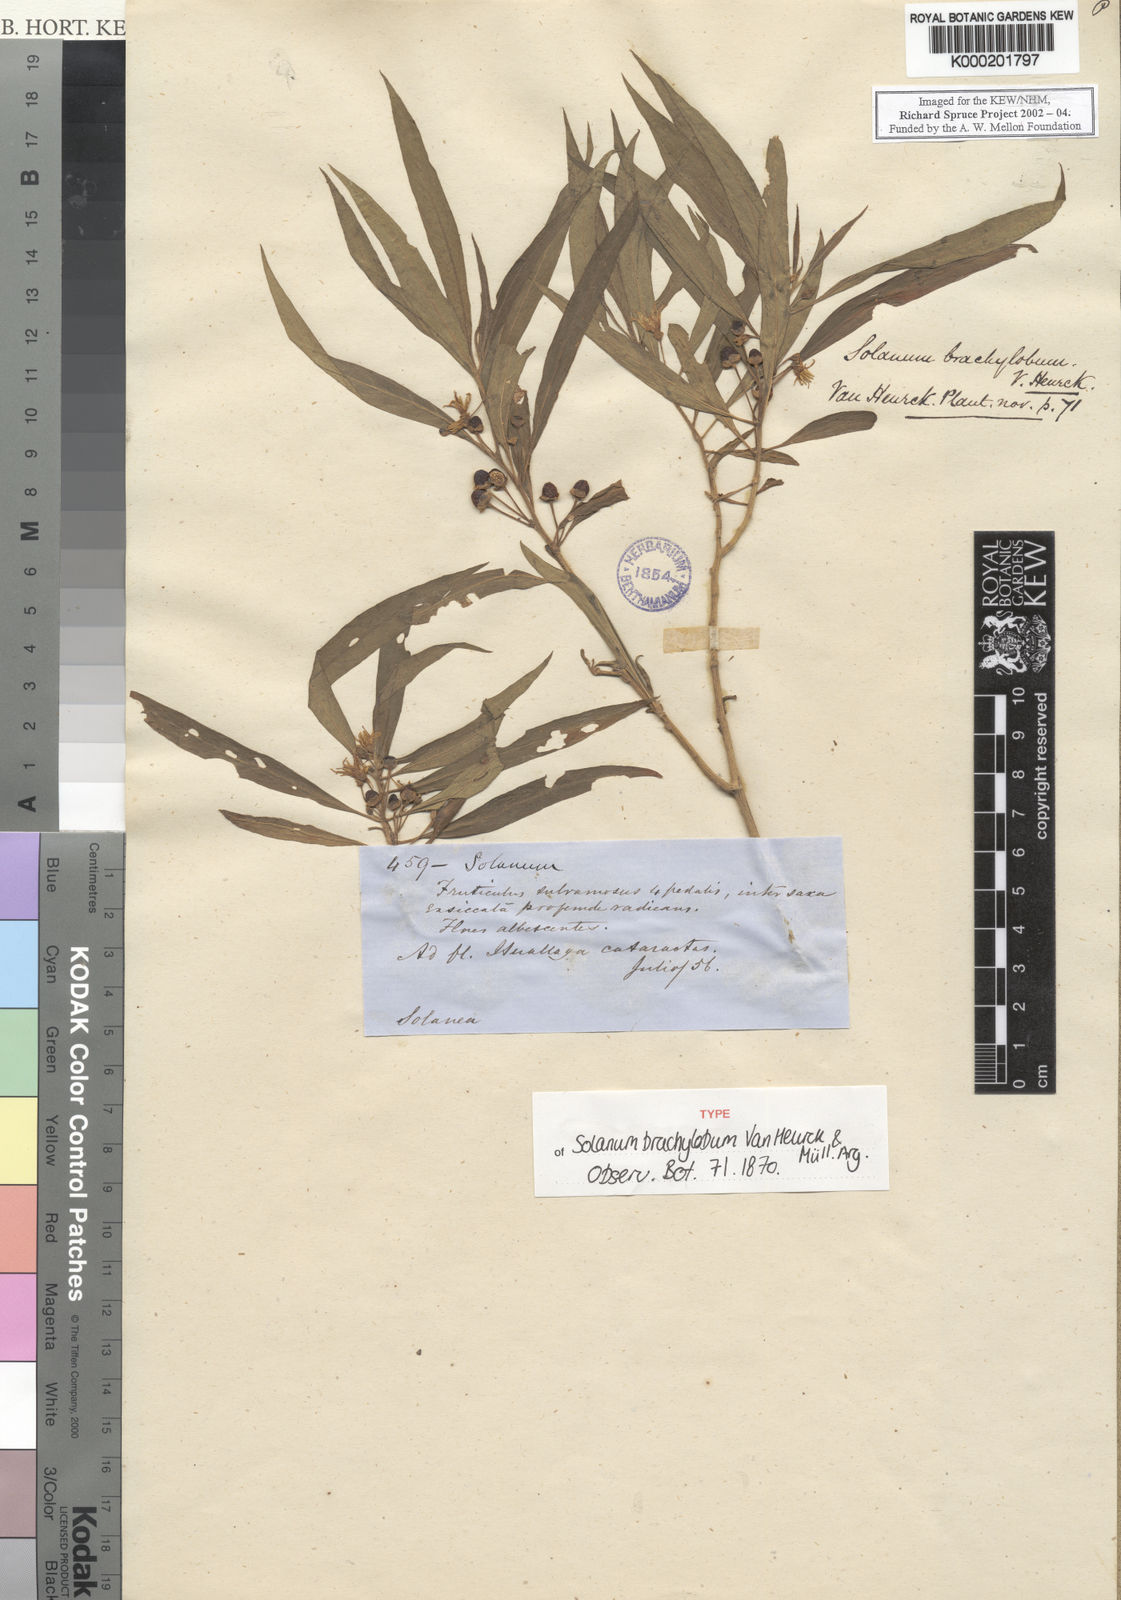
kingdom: Plantae
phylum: Tracheophyta
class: Magnoliopsida
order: Solanales
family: Solanaceae
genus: Lycianthes
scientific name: Lycianthes brachyloba
